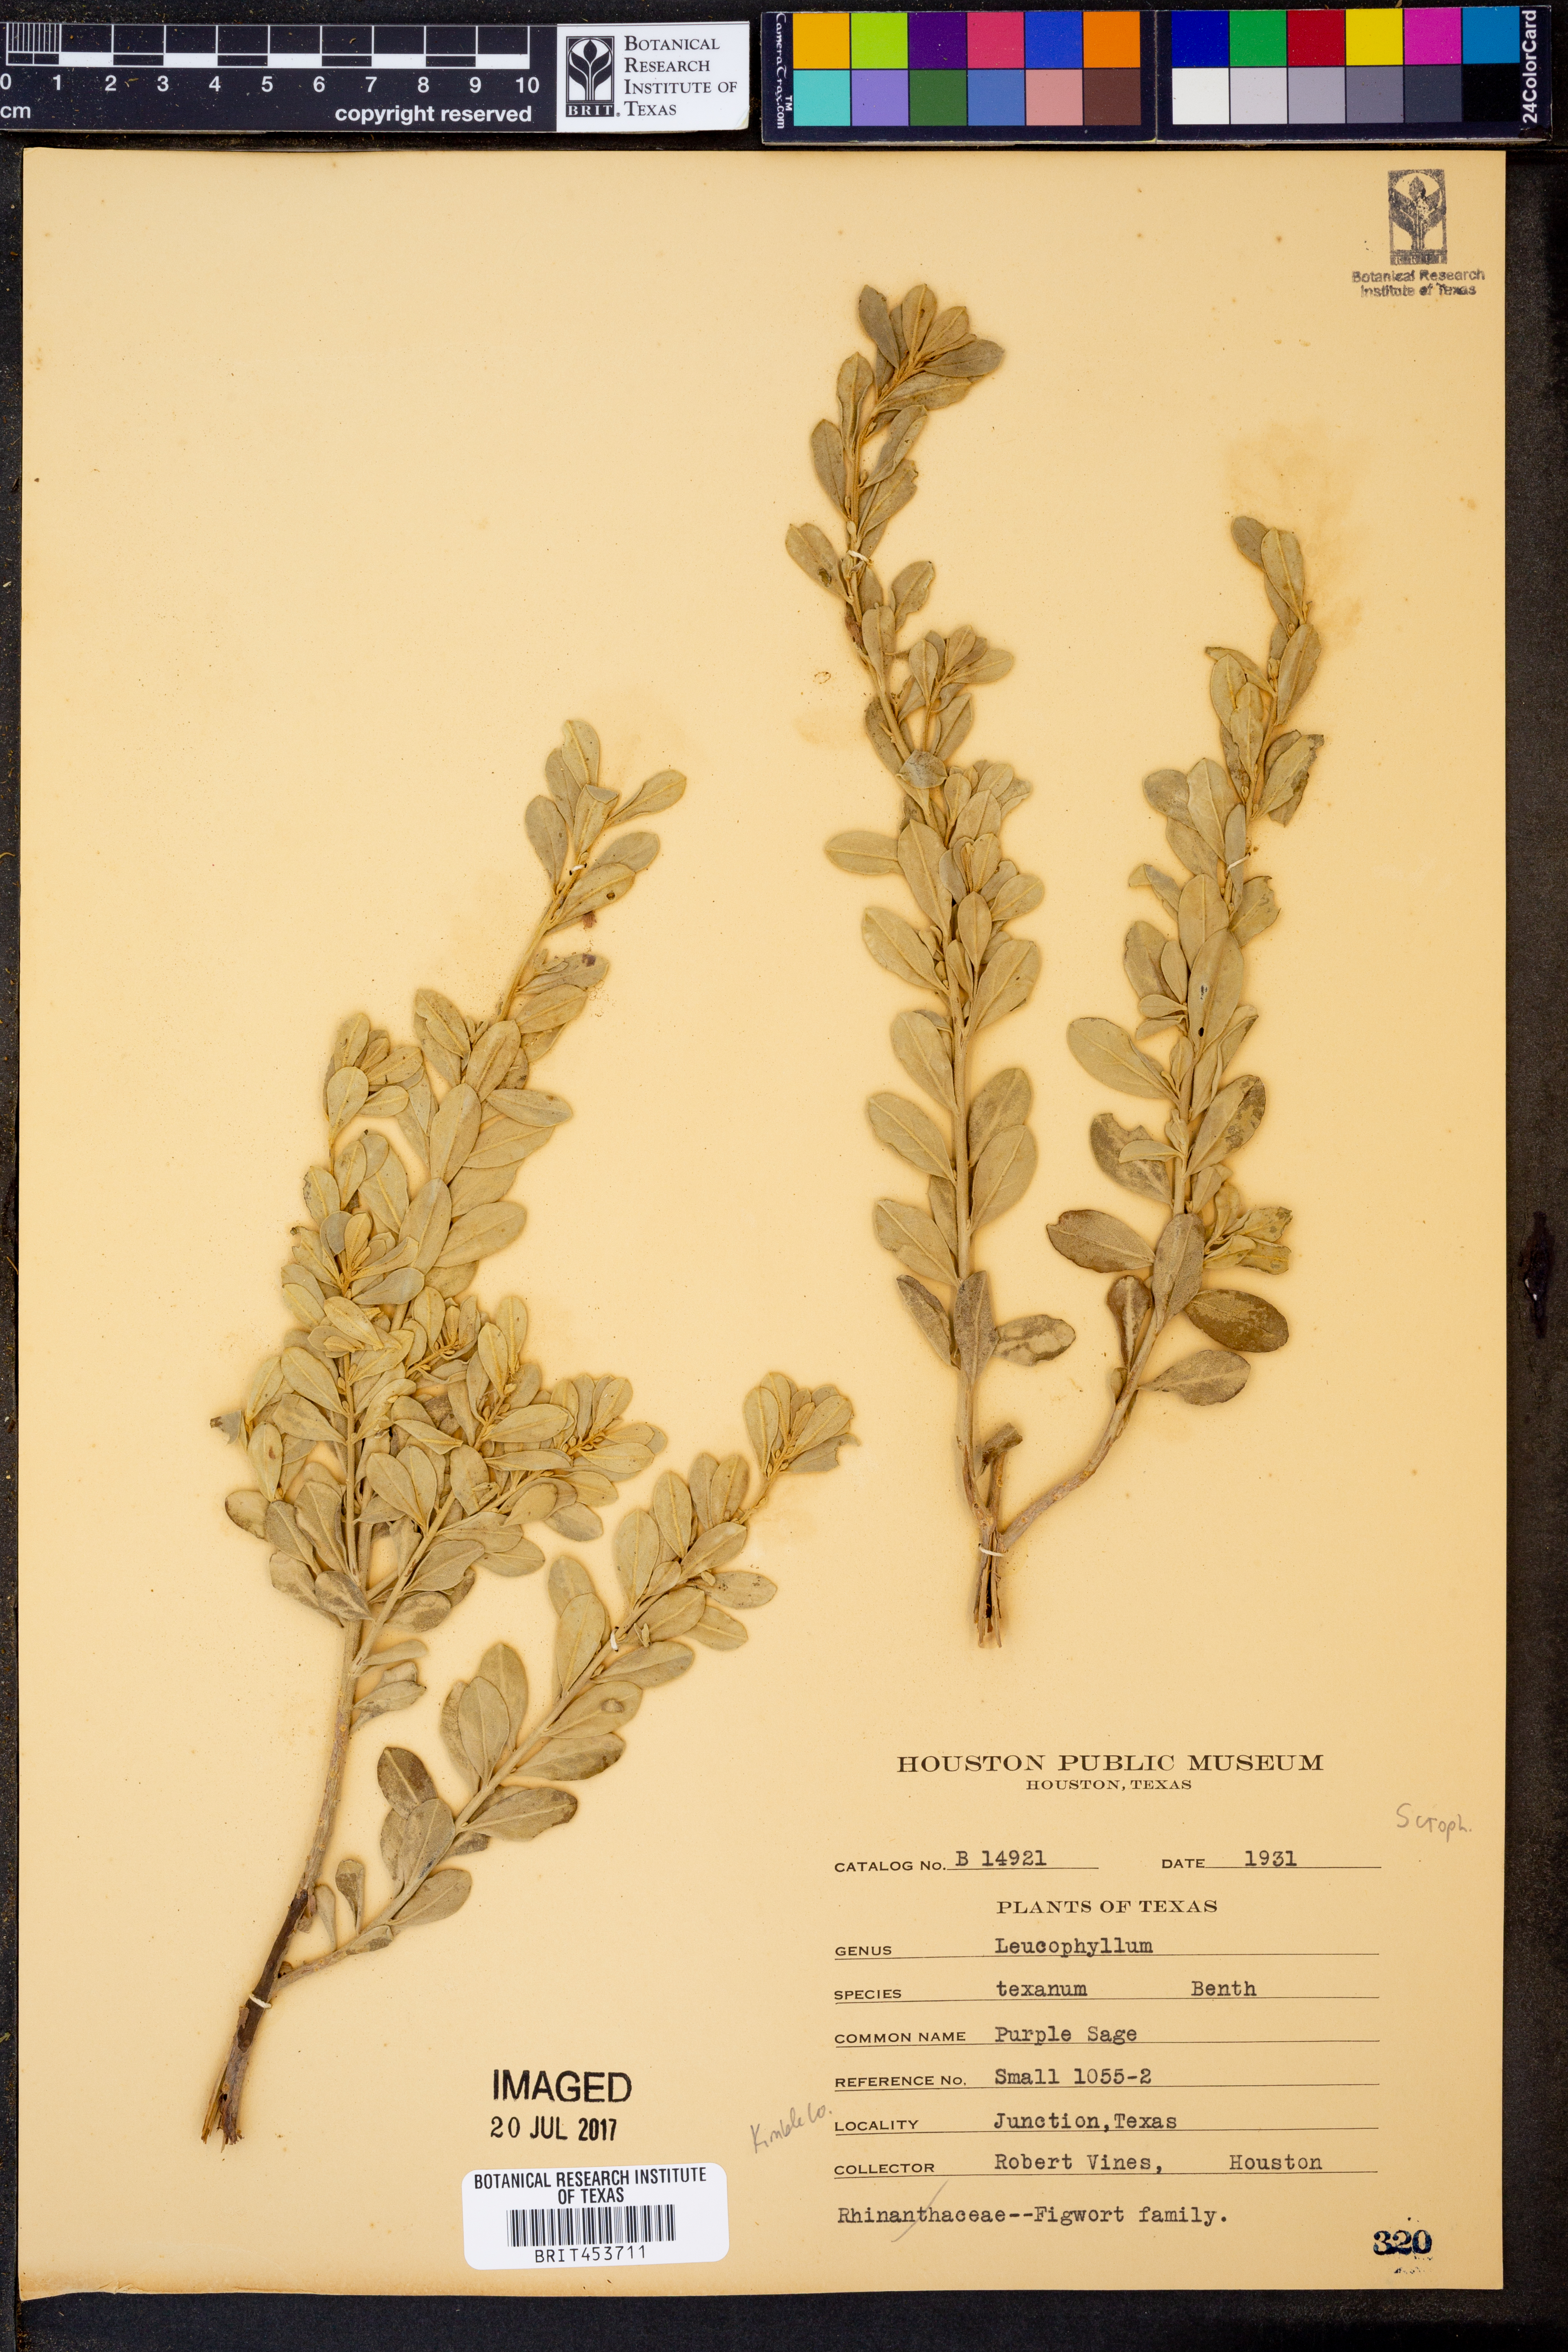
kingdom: Plantae
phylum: Tracheophyta
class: Magnoliopsida
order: Lamiales
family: Scrophulariaceae
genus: Leucophyllum
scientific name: Leucophyllum frutescens
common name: Texas silverleaf
